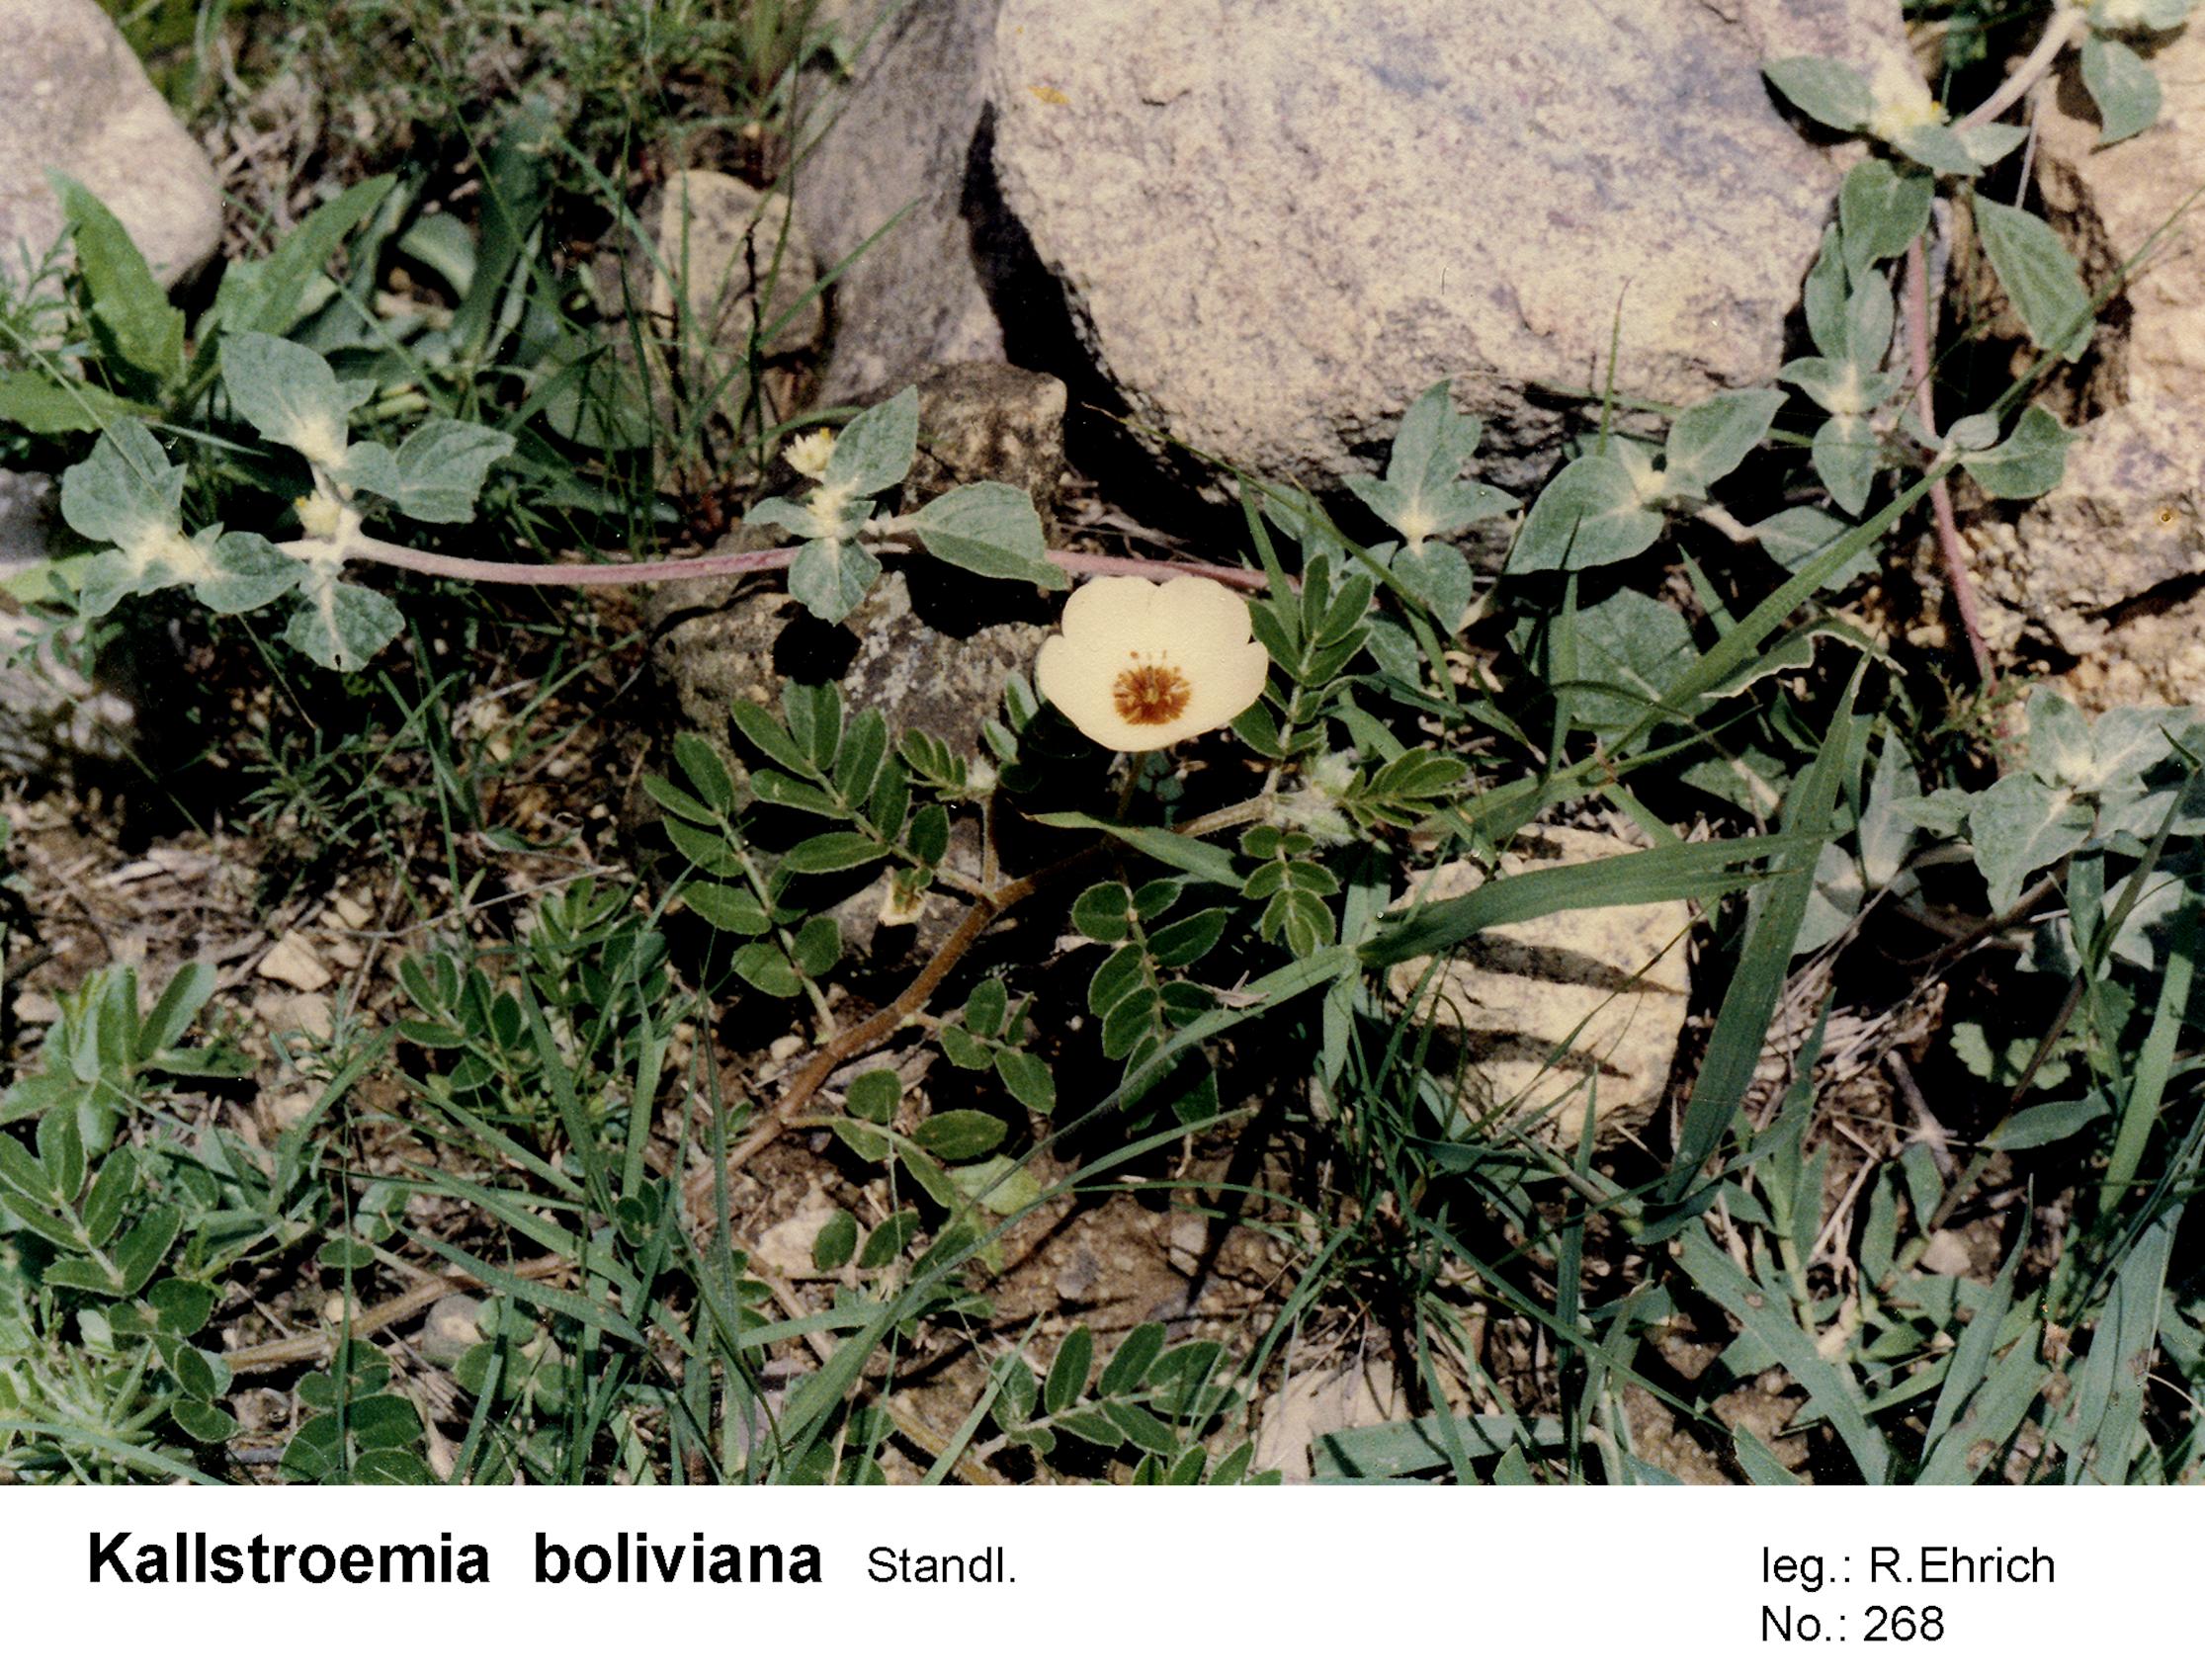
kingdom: Plantae
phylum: Tracheophyta
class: Magnoliopsida
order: Zygophyllales
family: Zygophyllaceae
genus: Kallstroemia
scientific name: Kallstroemia boliviana
